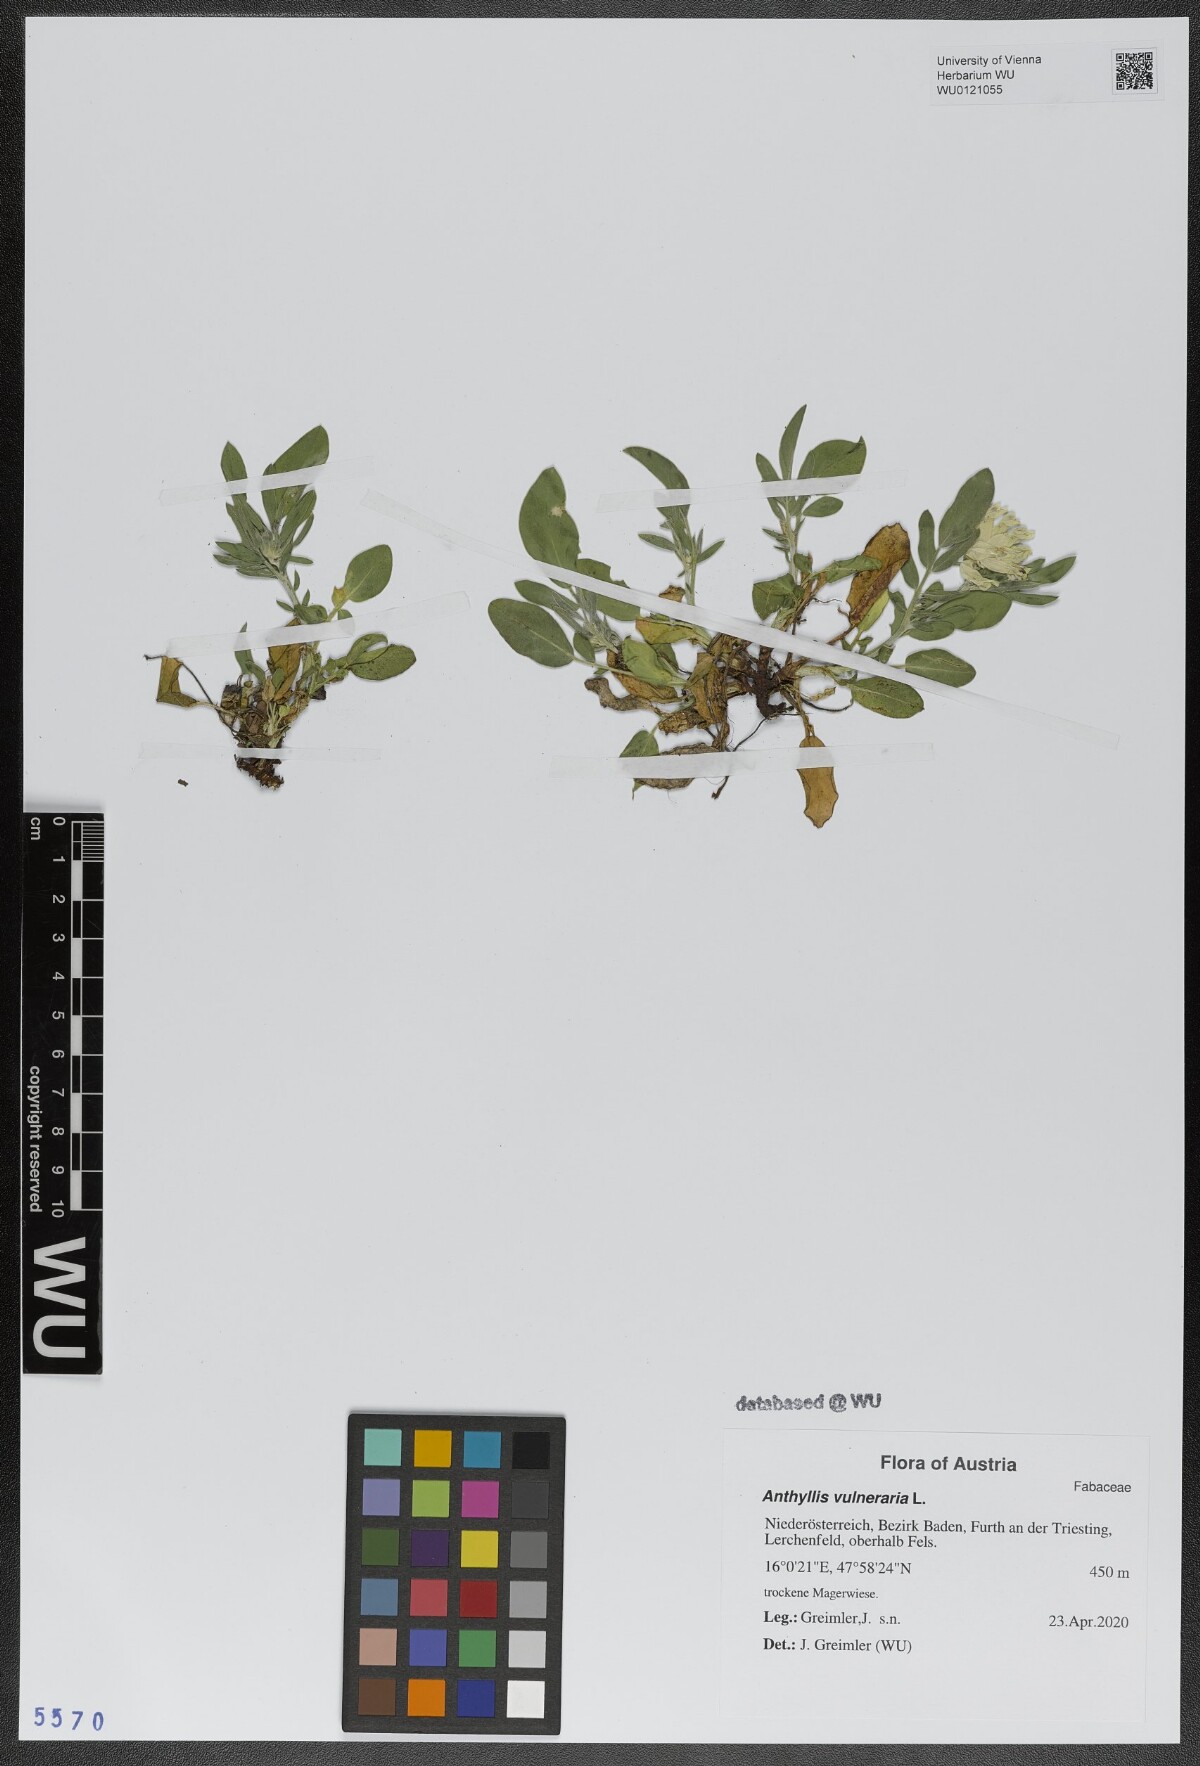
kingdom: Plantae
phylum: Tracheophyta
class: Magnoliopsida
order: Fabales
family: Fabaceae
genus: Anthyllis
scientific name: Anthyllis vulneraria
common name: Kidney vetch
